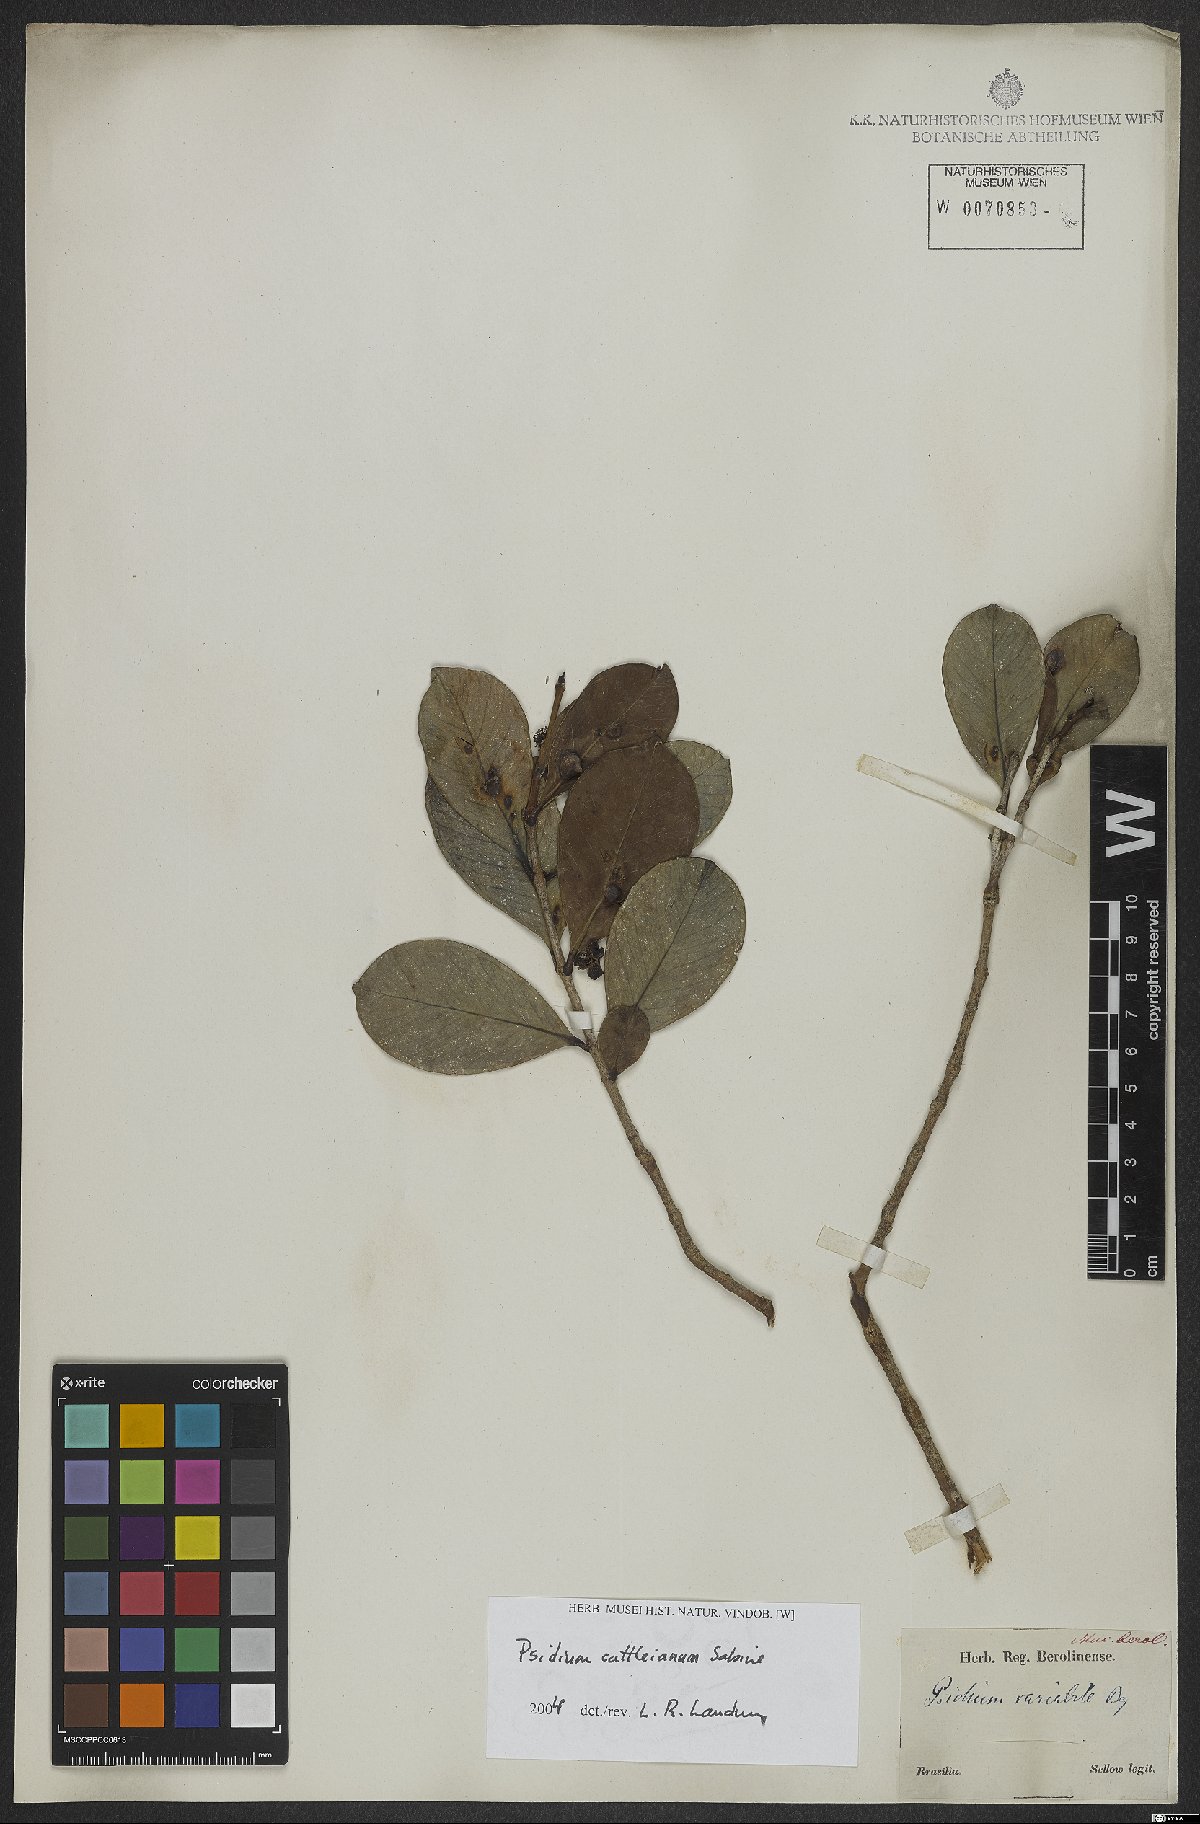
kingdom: Plantae
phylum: Tracheophyta
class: Magnoliopsida
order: Myrtales
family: Myrtaceae
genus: Psidium
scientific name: Psidium cattleianum
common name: Strawberry guava
